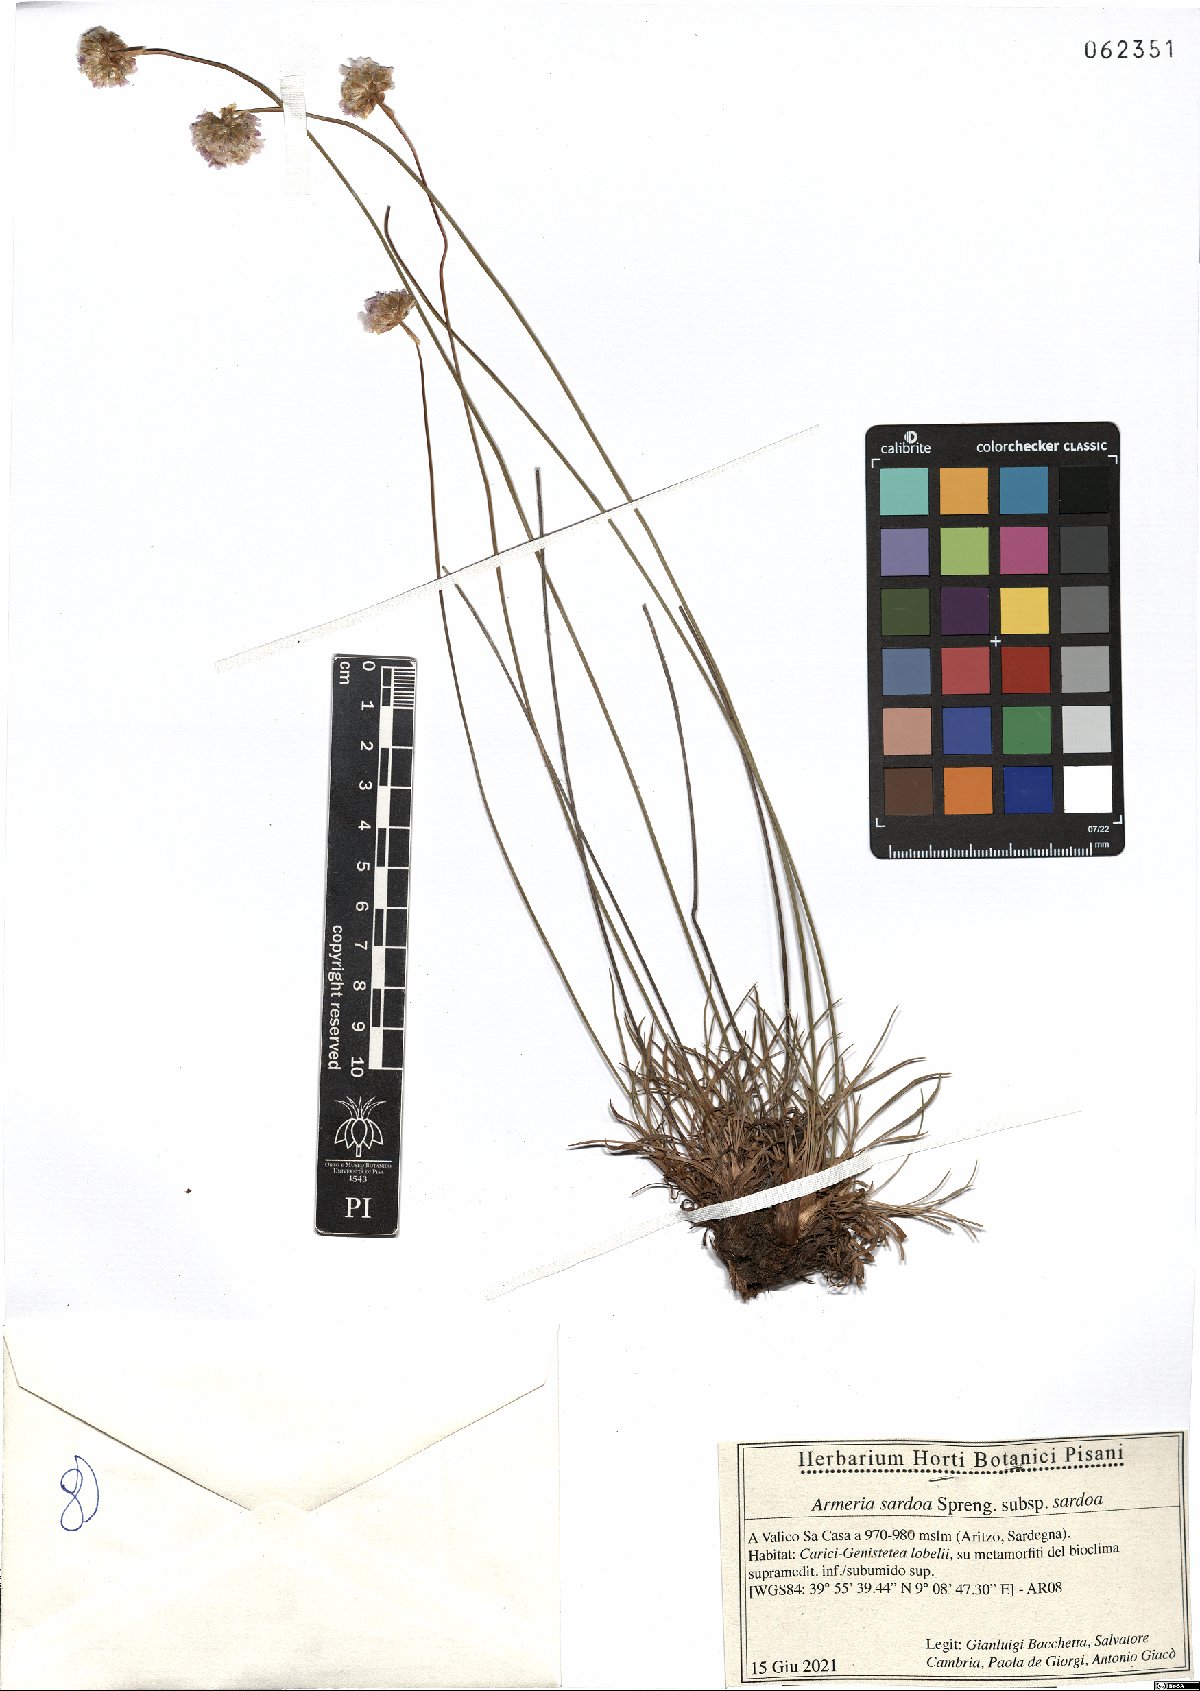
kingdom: Plantae
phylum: Tracheophyta
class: Magnoliopsida
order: Caryophyllales
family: Plumbaginaceae
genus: Armeria
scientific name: Armeria sardoa
